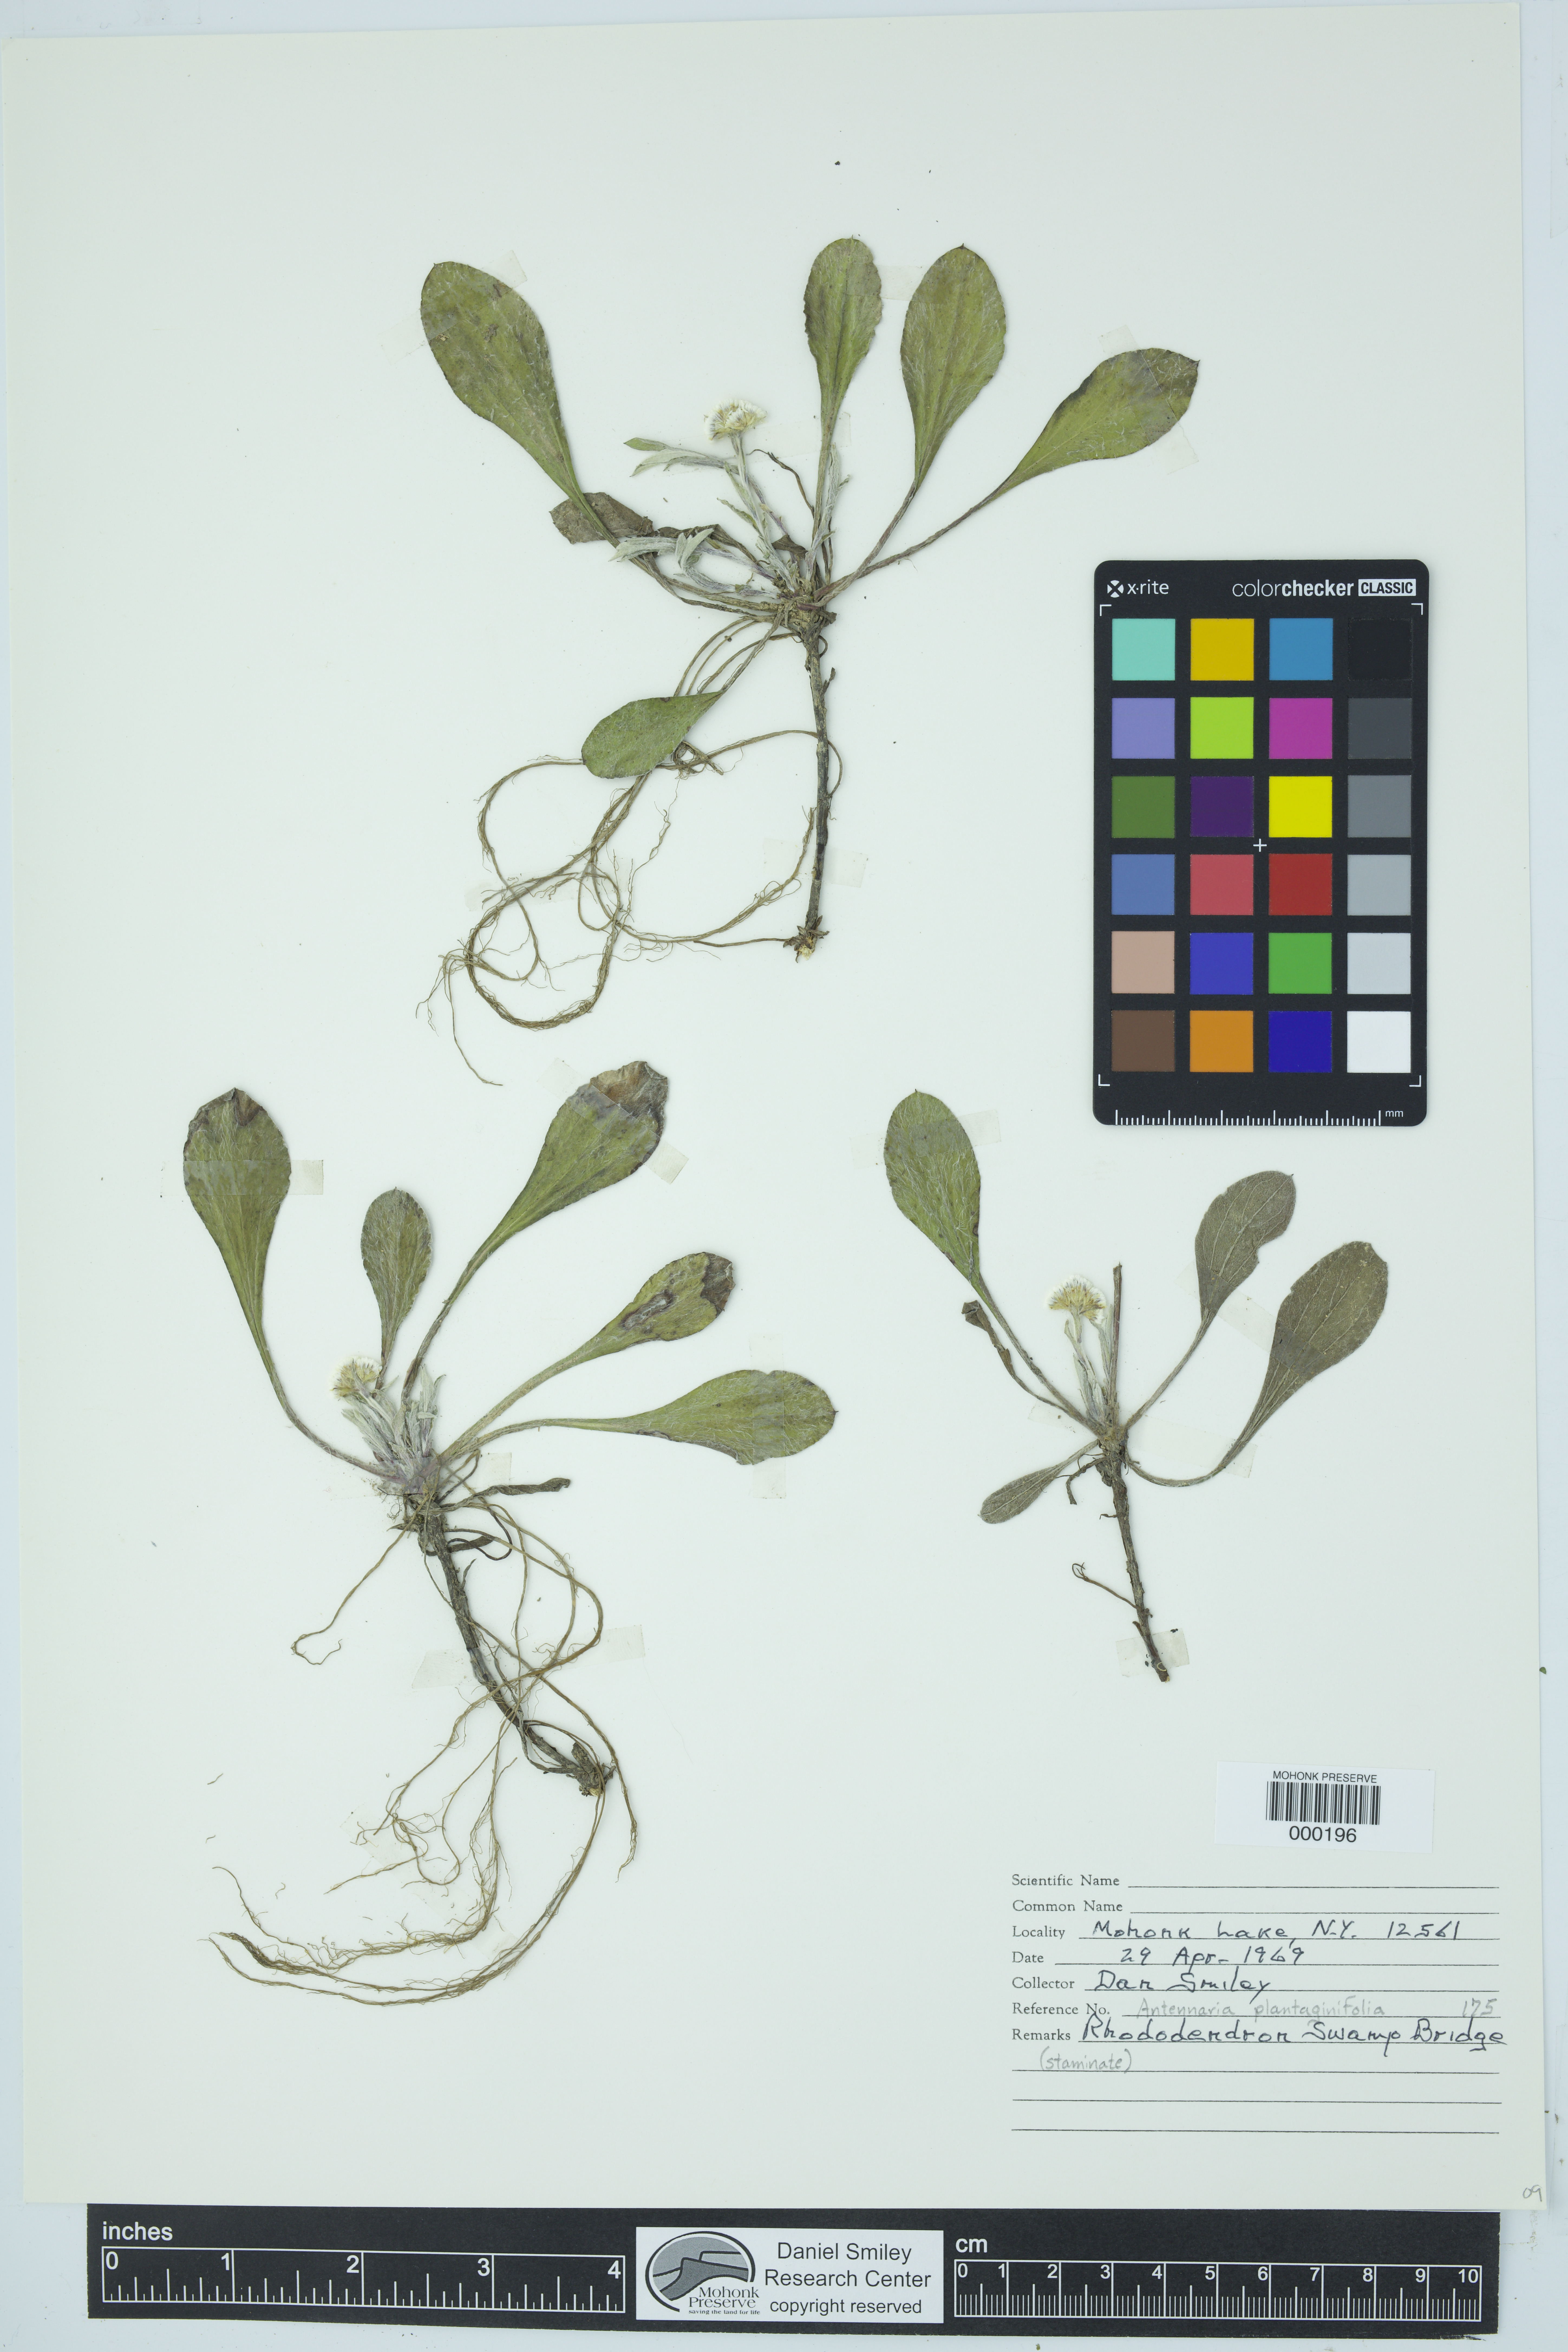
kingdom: Plantae
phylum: Tracheophyta
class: Magnoliopsida
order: Asterales
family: Asteraceae
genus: Antennaria
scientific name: Antennaria plantaginifolia
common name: Plantain-leaved pussytoes
